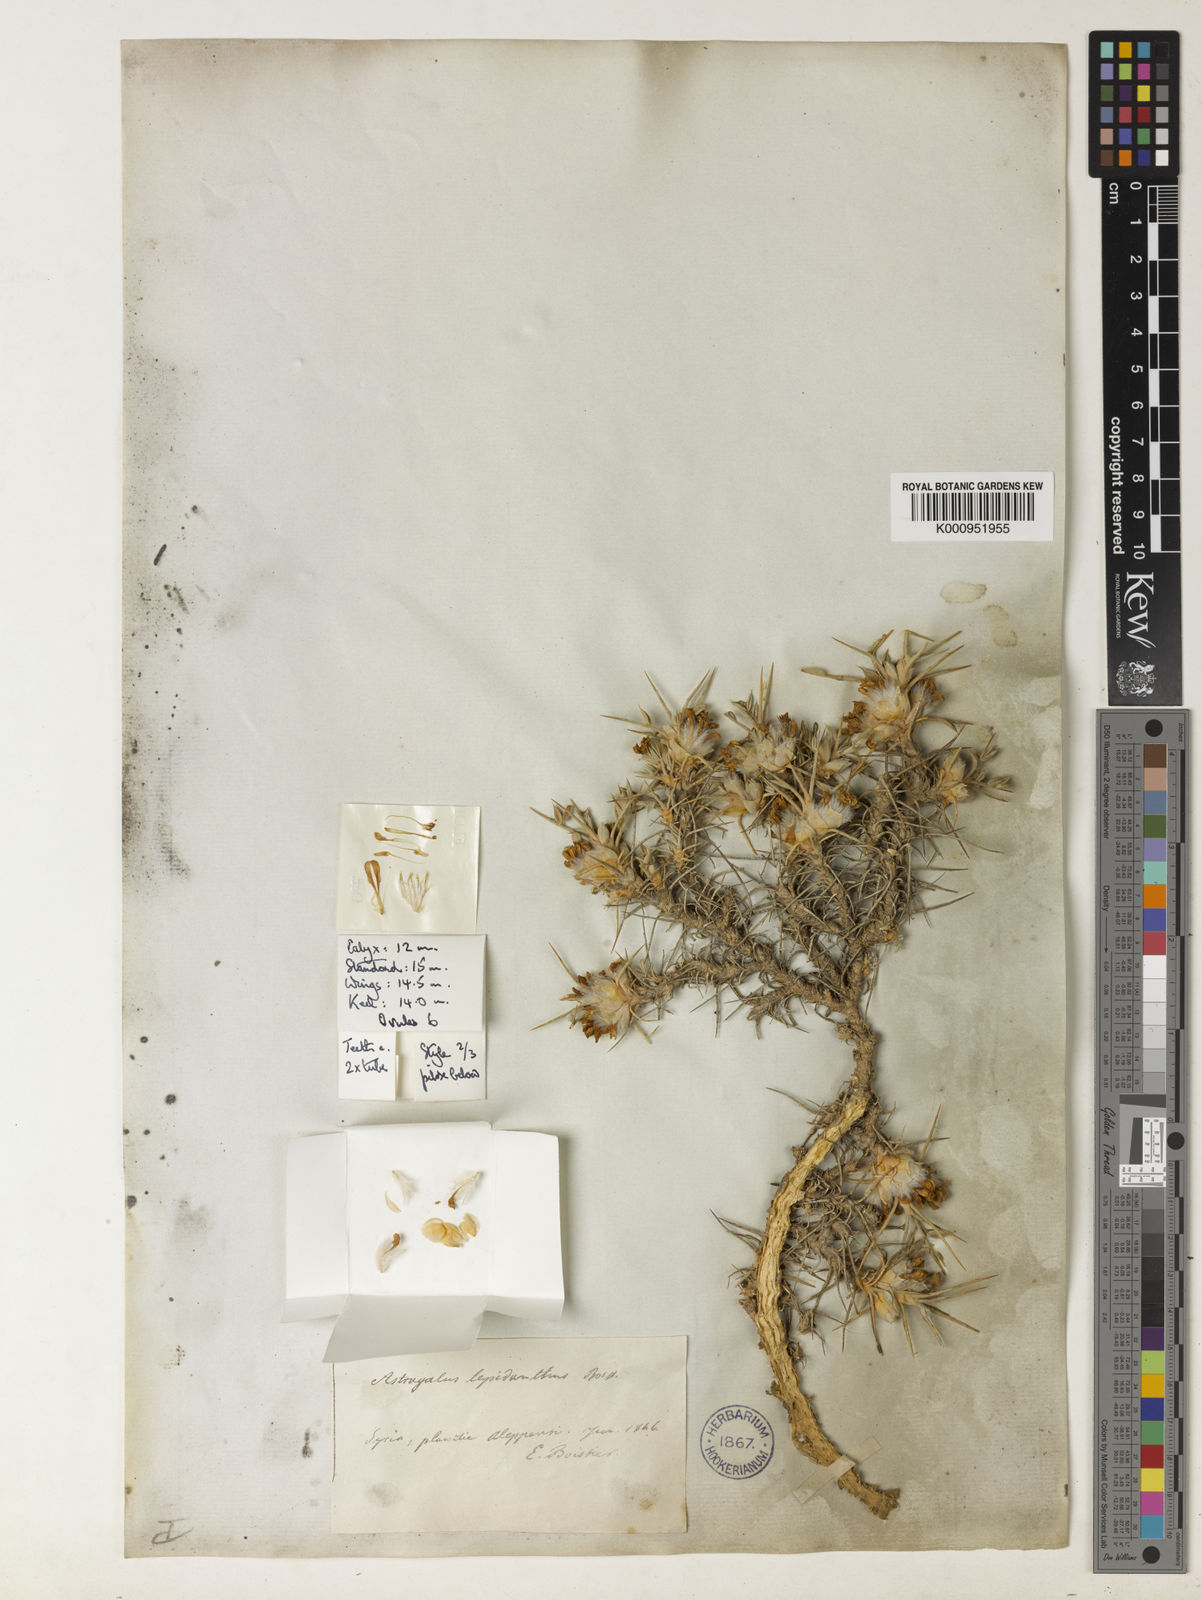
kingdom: Plantae
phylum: Tracheophyta
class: Magnoliopsida
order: Fabales
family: Fabaceae
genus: Astragalus
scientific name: Astragalus bethlehemiticus
